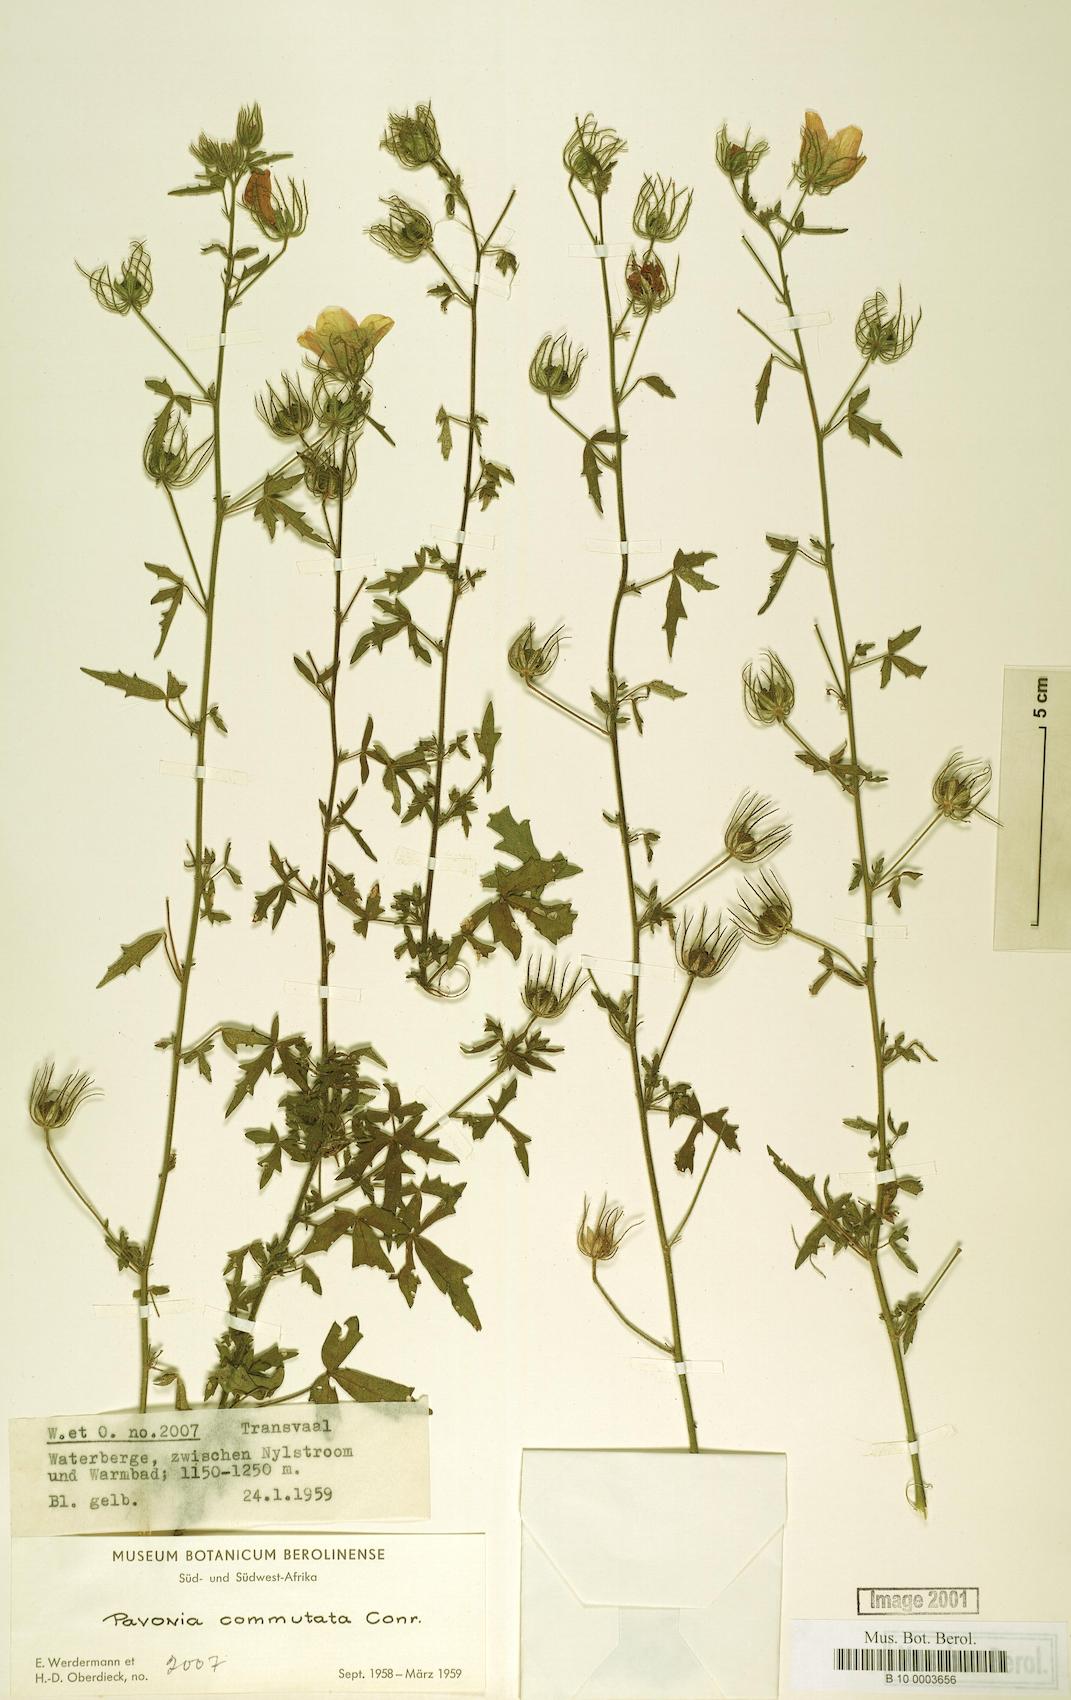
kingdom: Plantae
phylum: Tracheophyta
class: Magnoliopsida
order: Malvales
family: Malvaceae
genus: Pavonia
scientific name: Pavonia commutata
